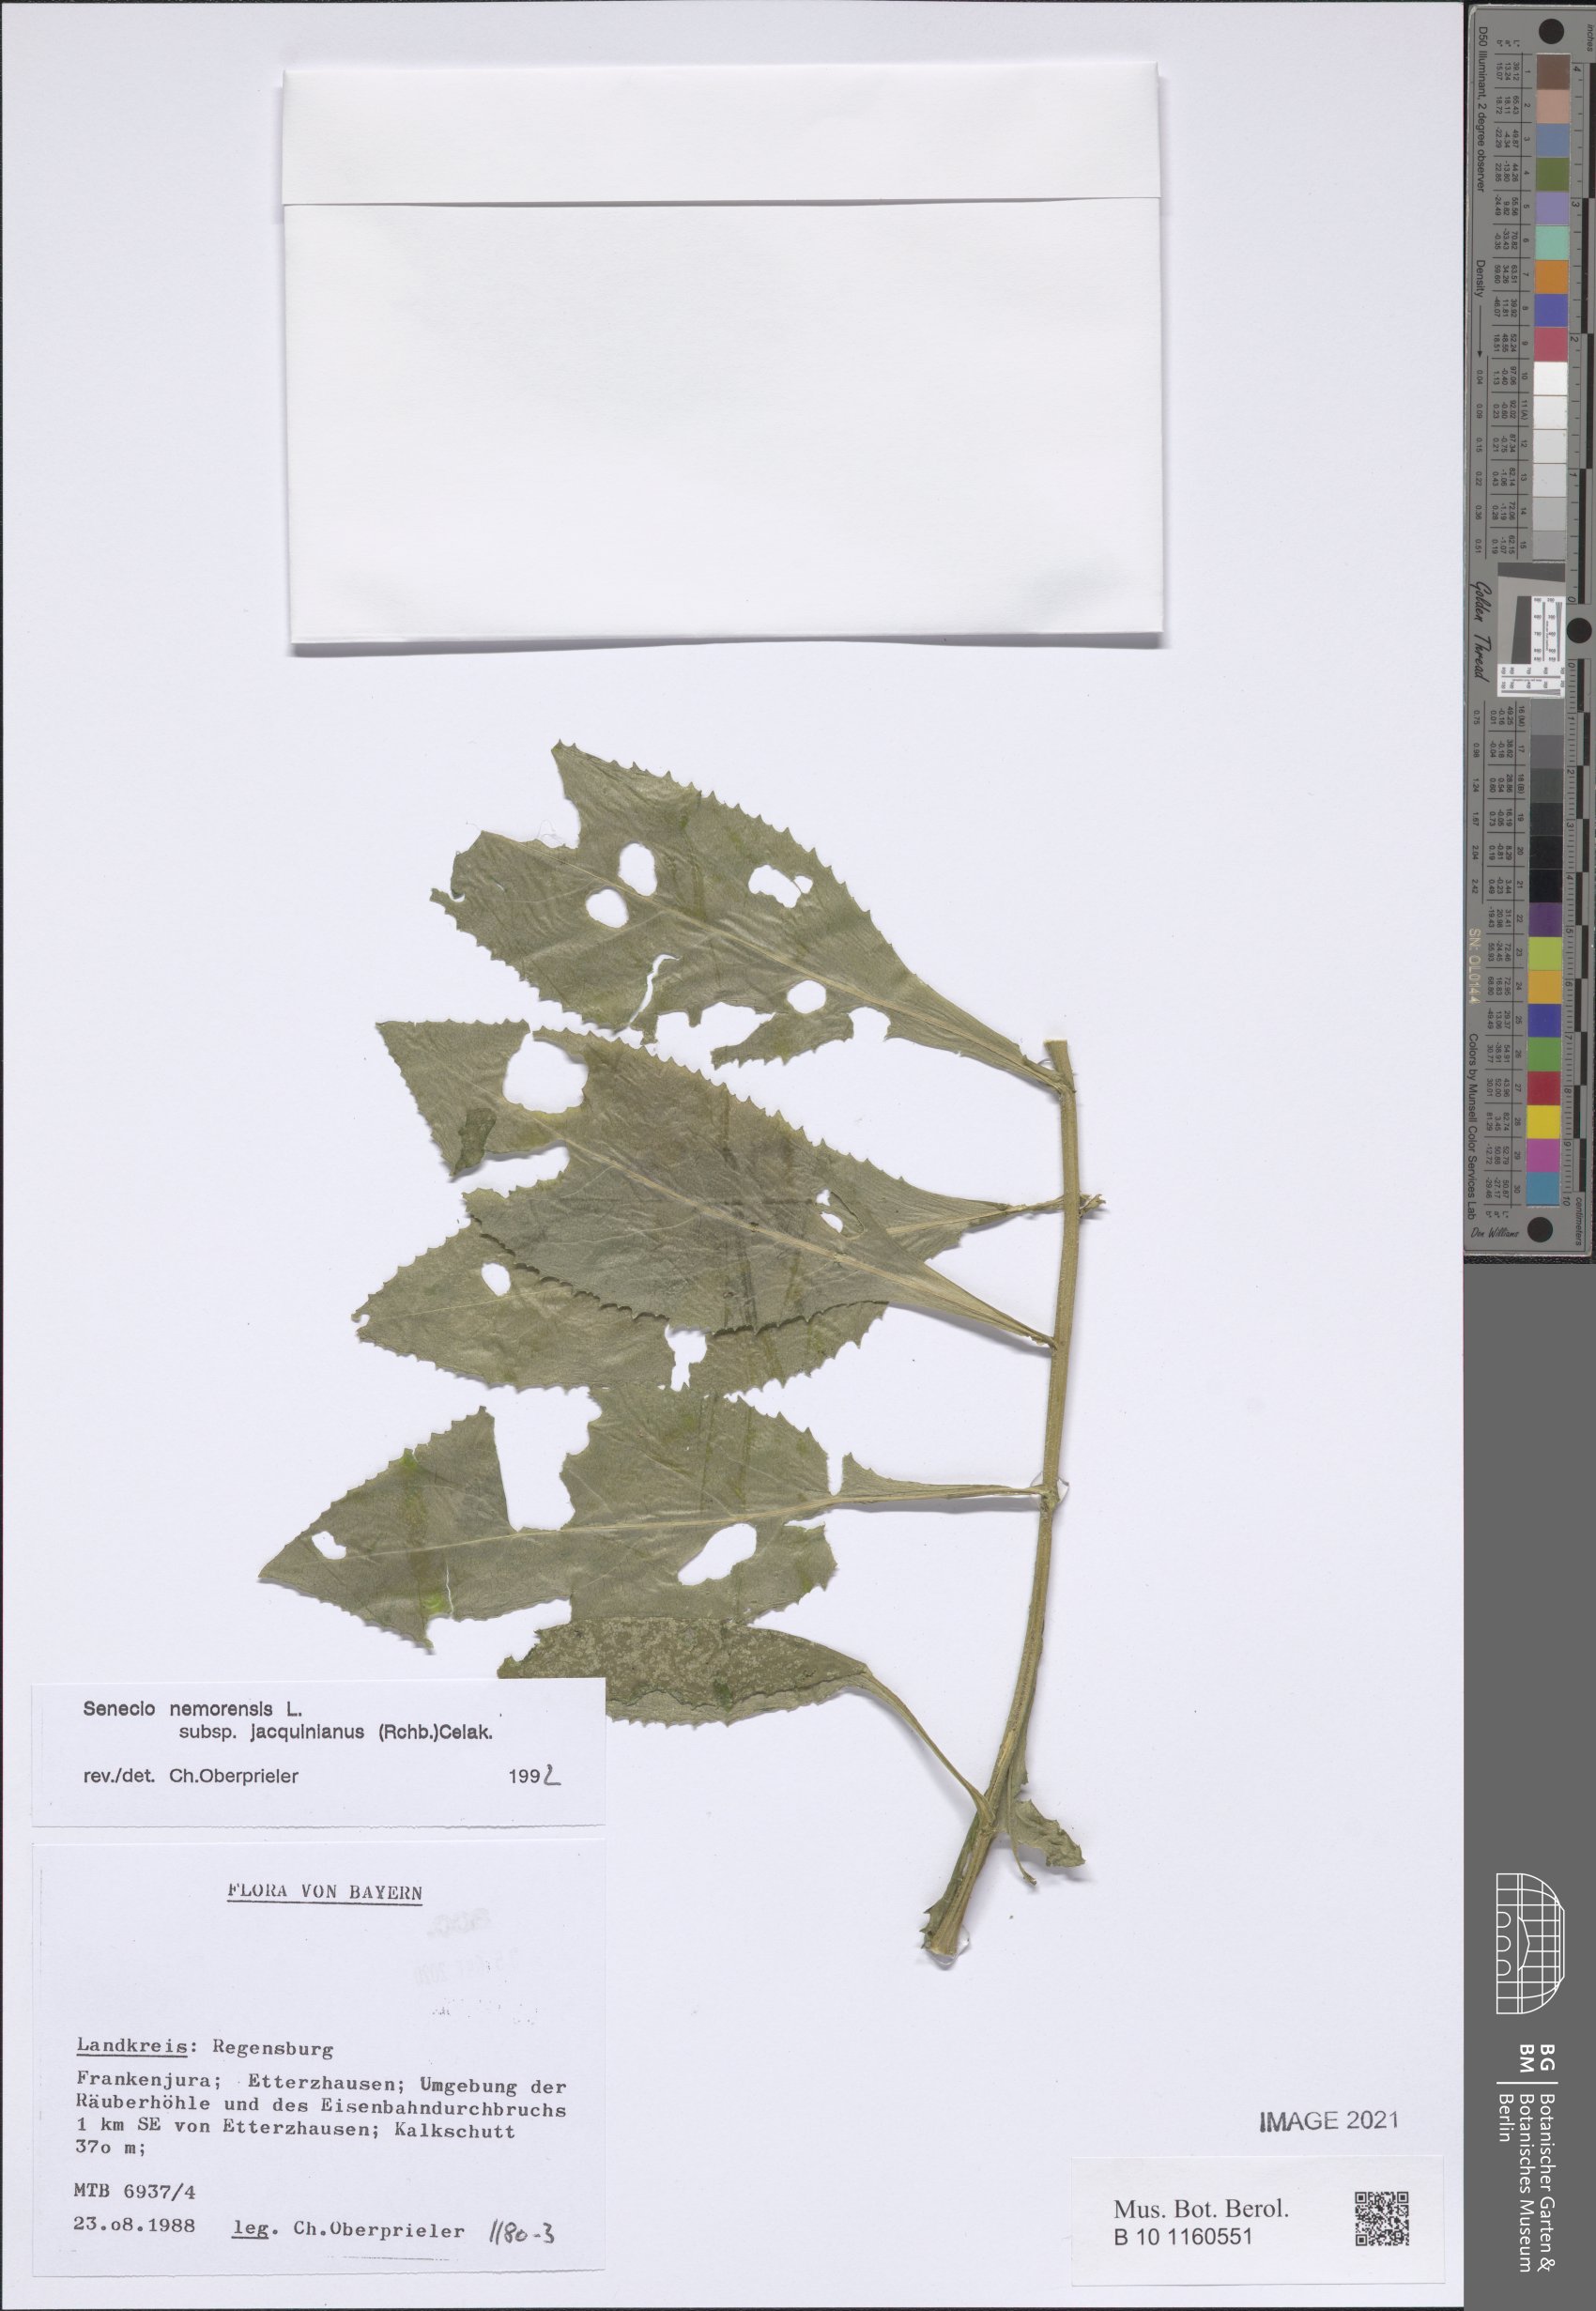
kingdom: Plantae
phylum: Tracheophyta
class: Magnoliopsida
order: Asterales
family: Asteraceae
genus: Senecio
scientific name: Senecio germanicus
